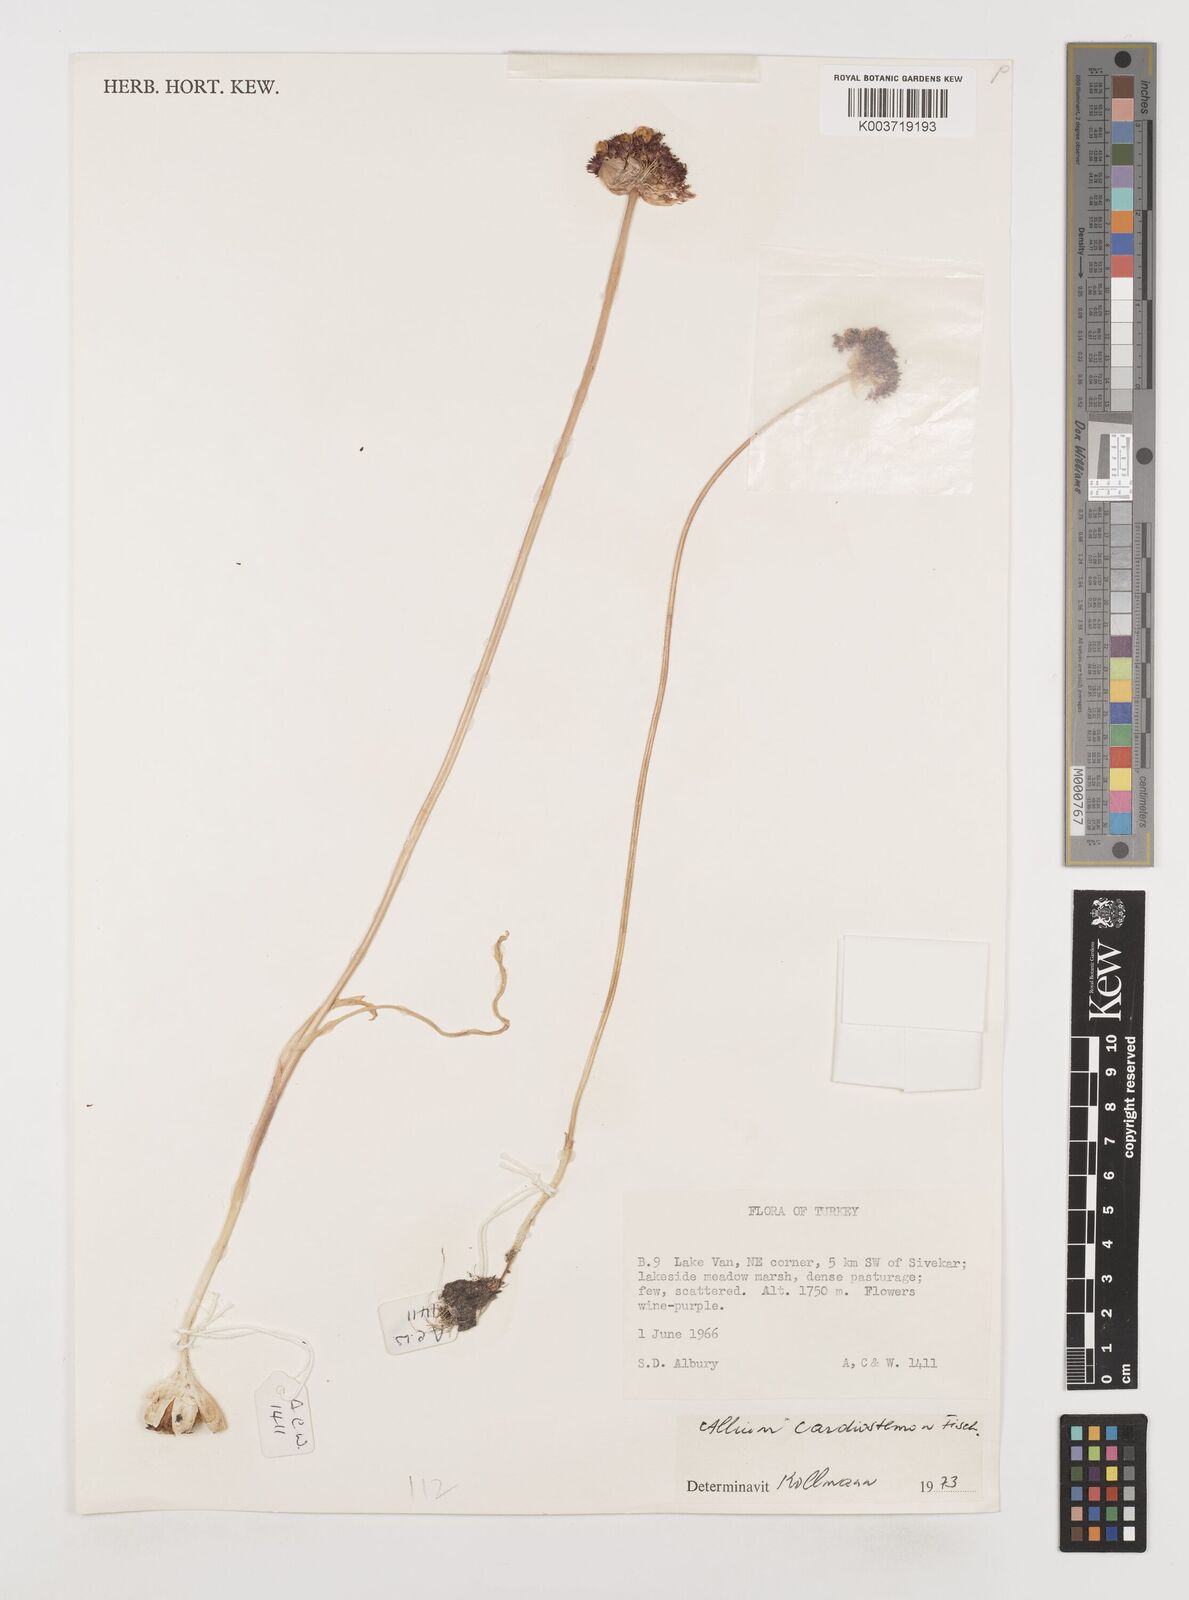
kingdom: Plantae
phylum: Tracheophyta
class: Liliopsida
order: Asparagales
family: Amaryllidaceae
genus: Allium
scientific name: Allium cardiostemon
